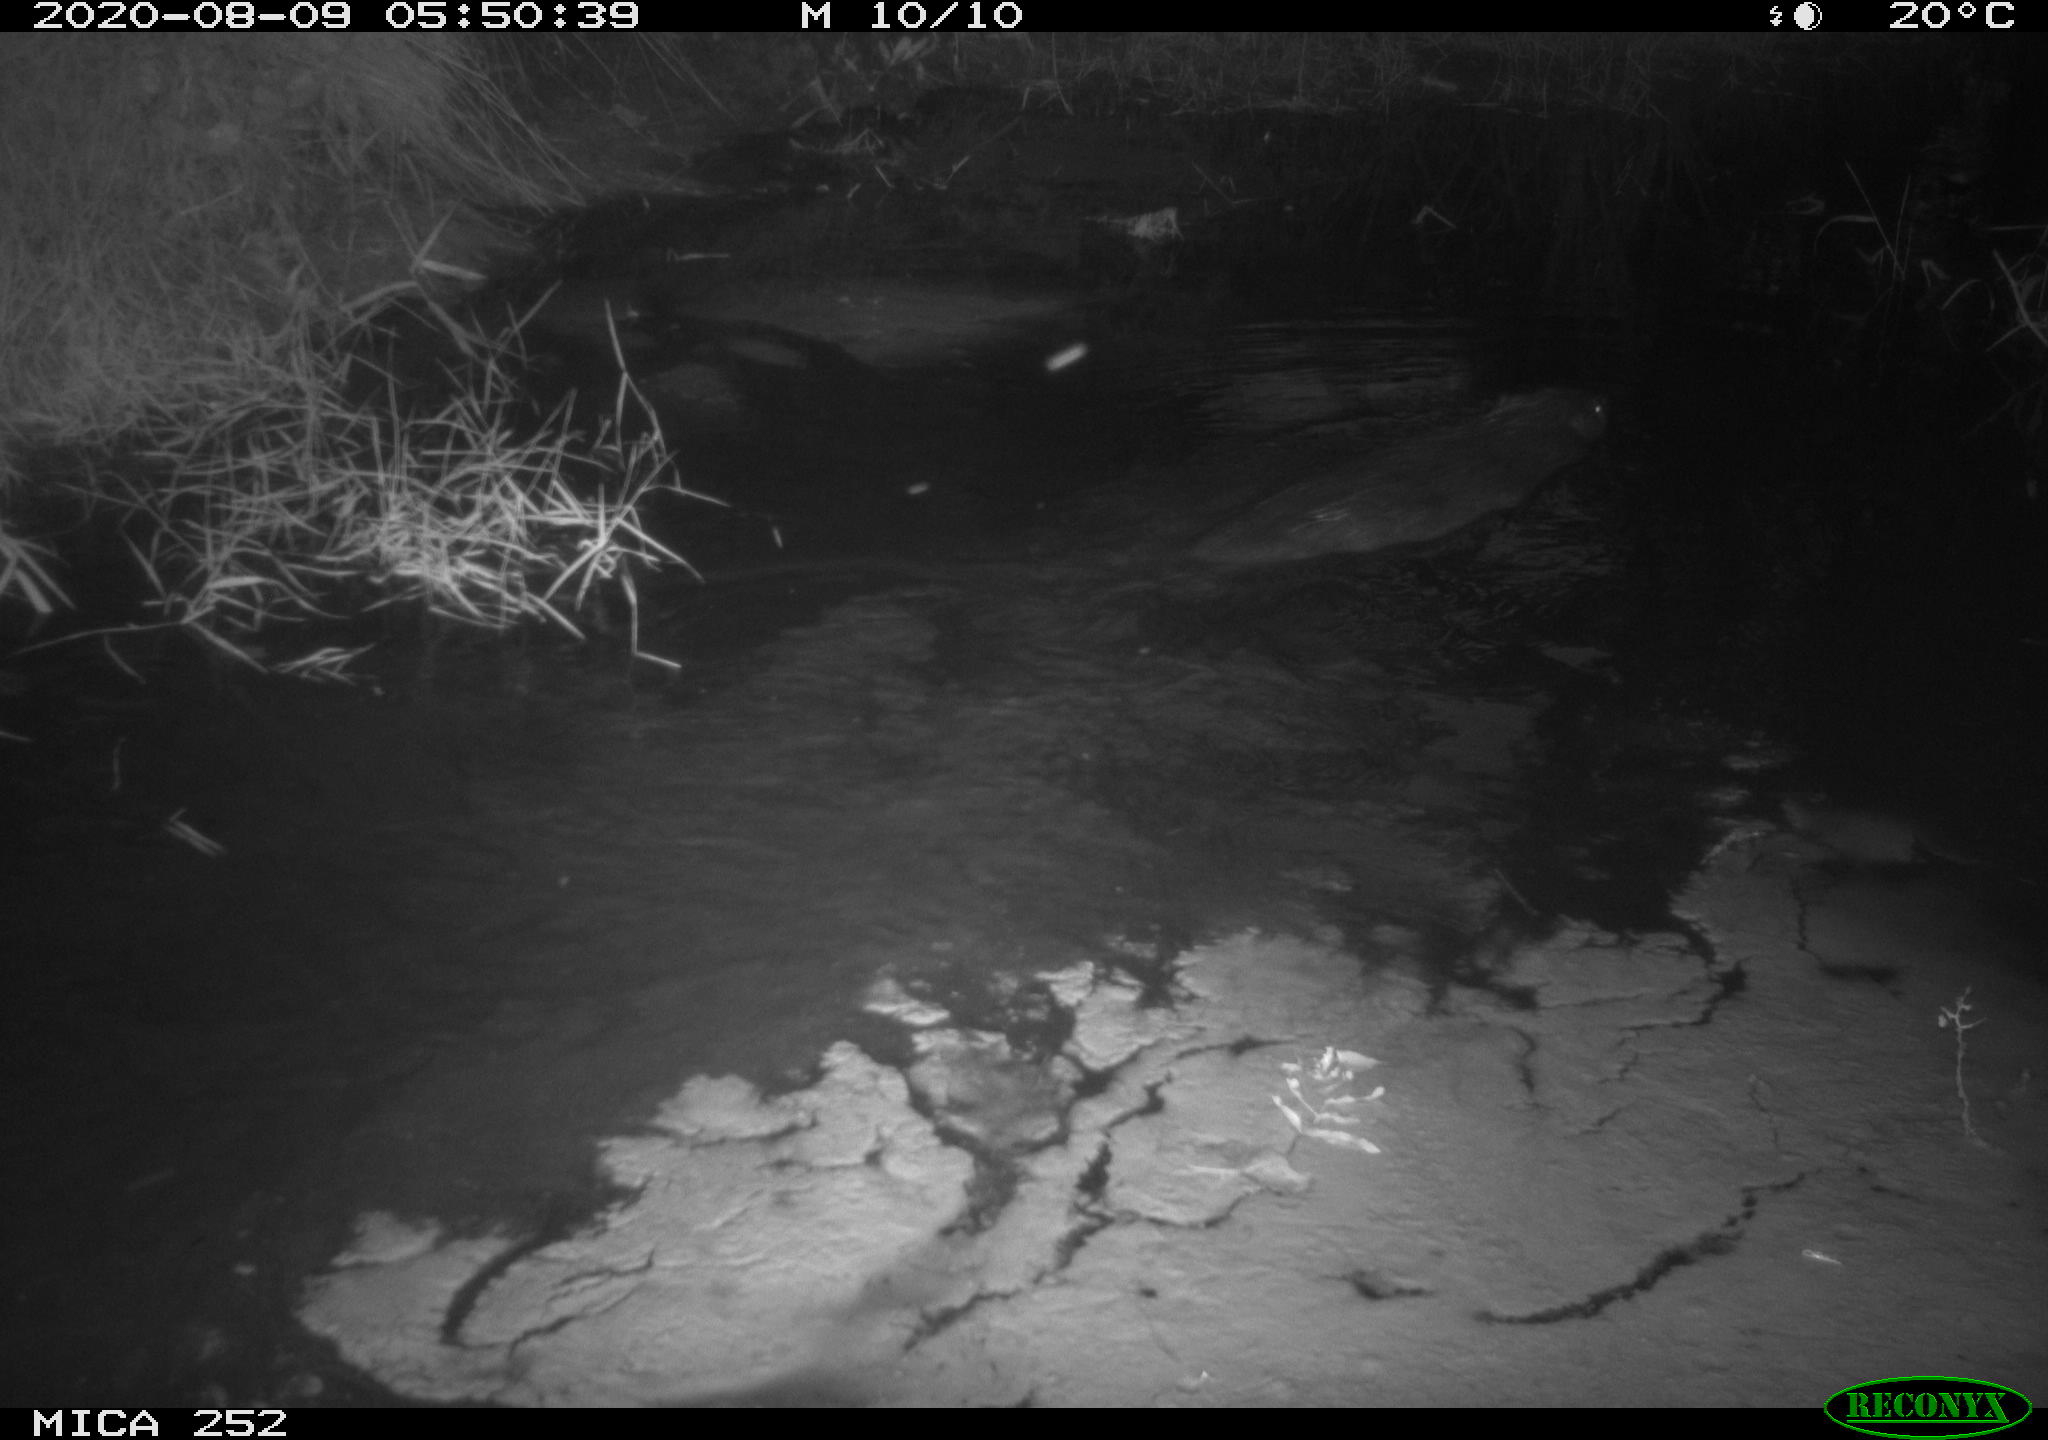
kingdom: Animalia
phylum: Chordata
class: Mammalia
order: Rodentia
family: Castoridae
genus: Castor
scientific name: Castor fiber
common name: Eurasian beaver
